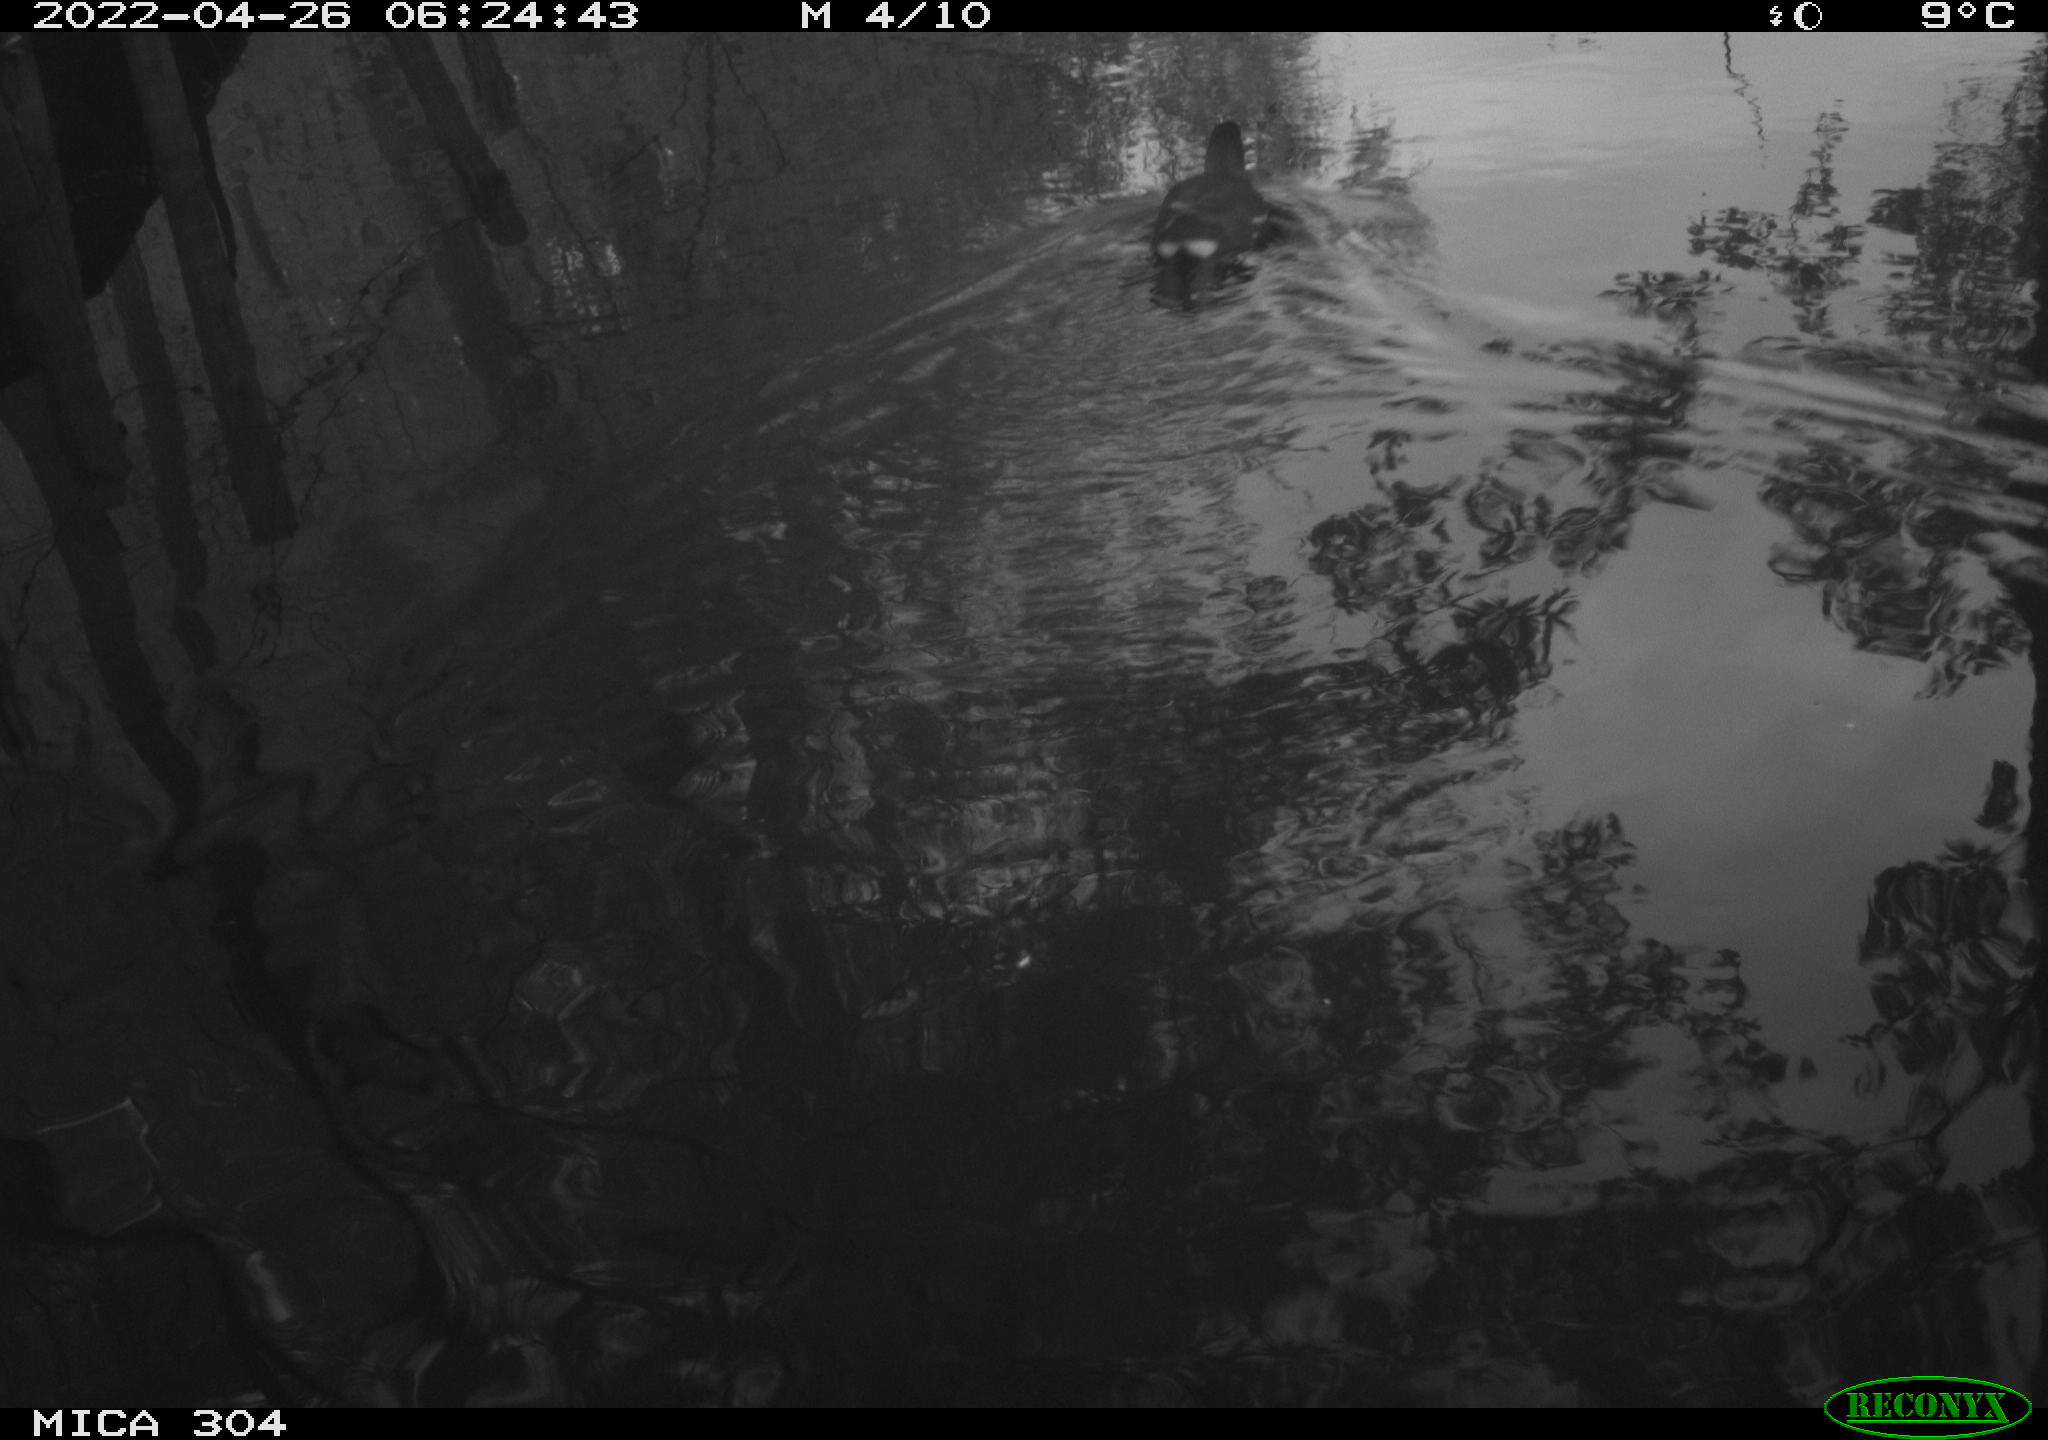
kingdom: Animalia
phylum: Chordata
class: Aves
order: Gruiformes
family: Rallidae
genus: Gallinula
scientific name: Gallinula chloropus
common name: Common moorhen
